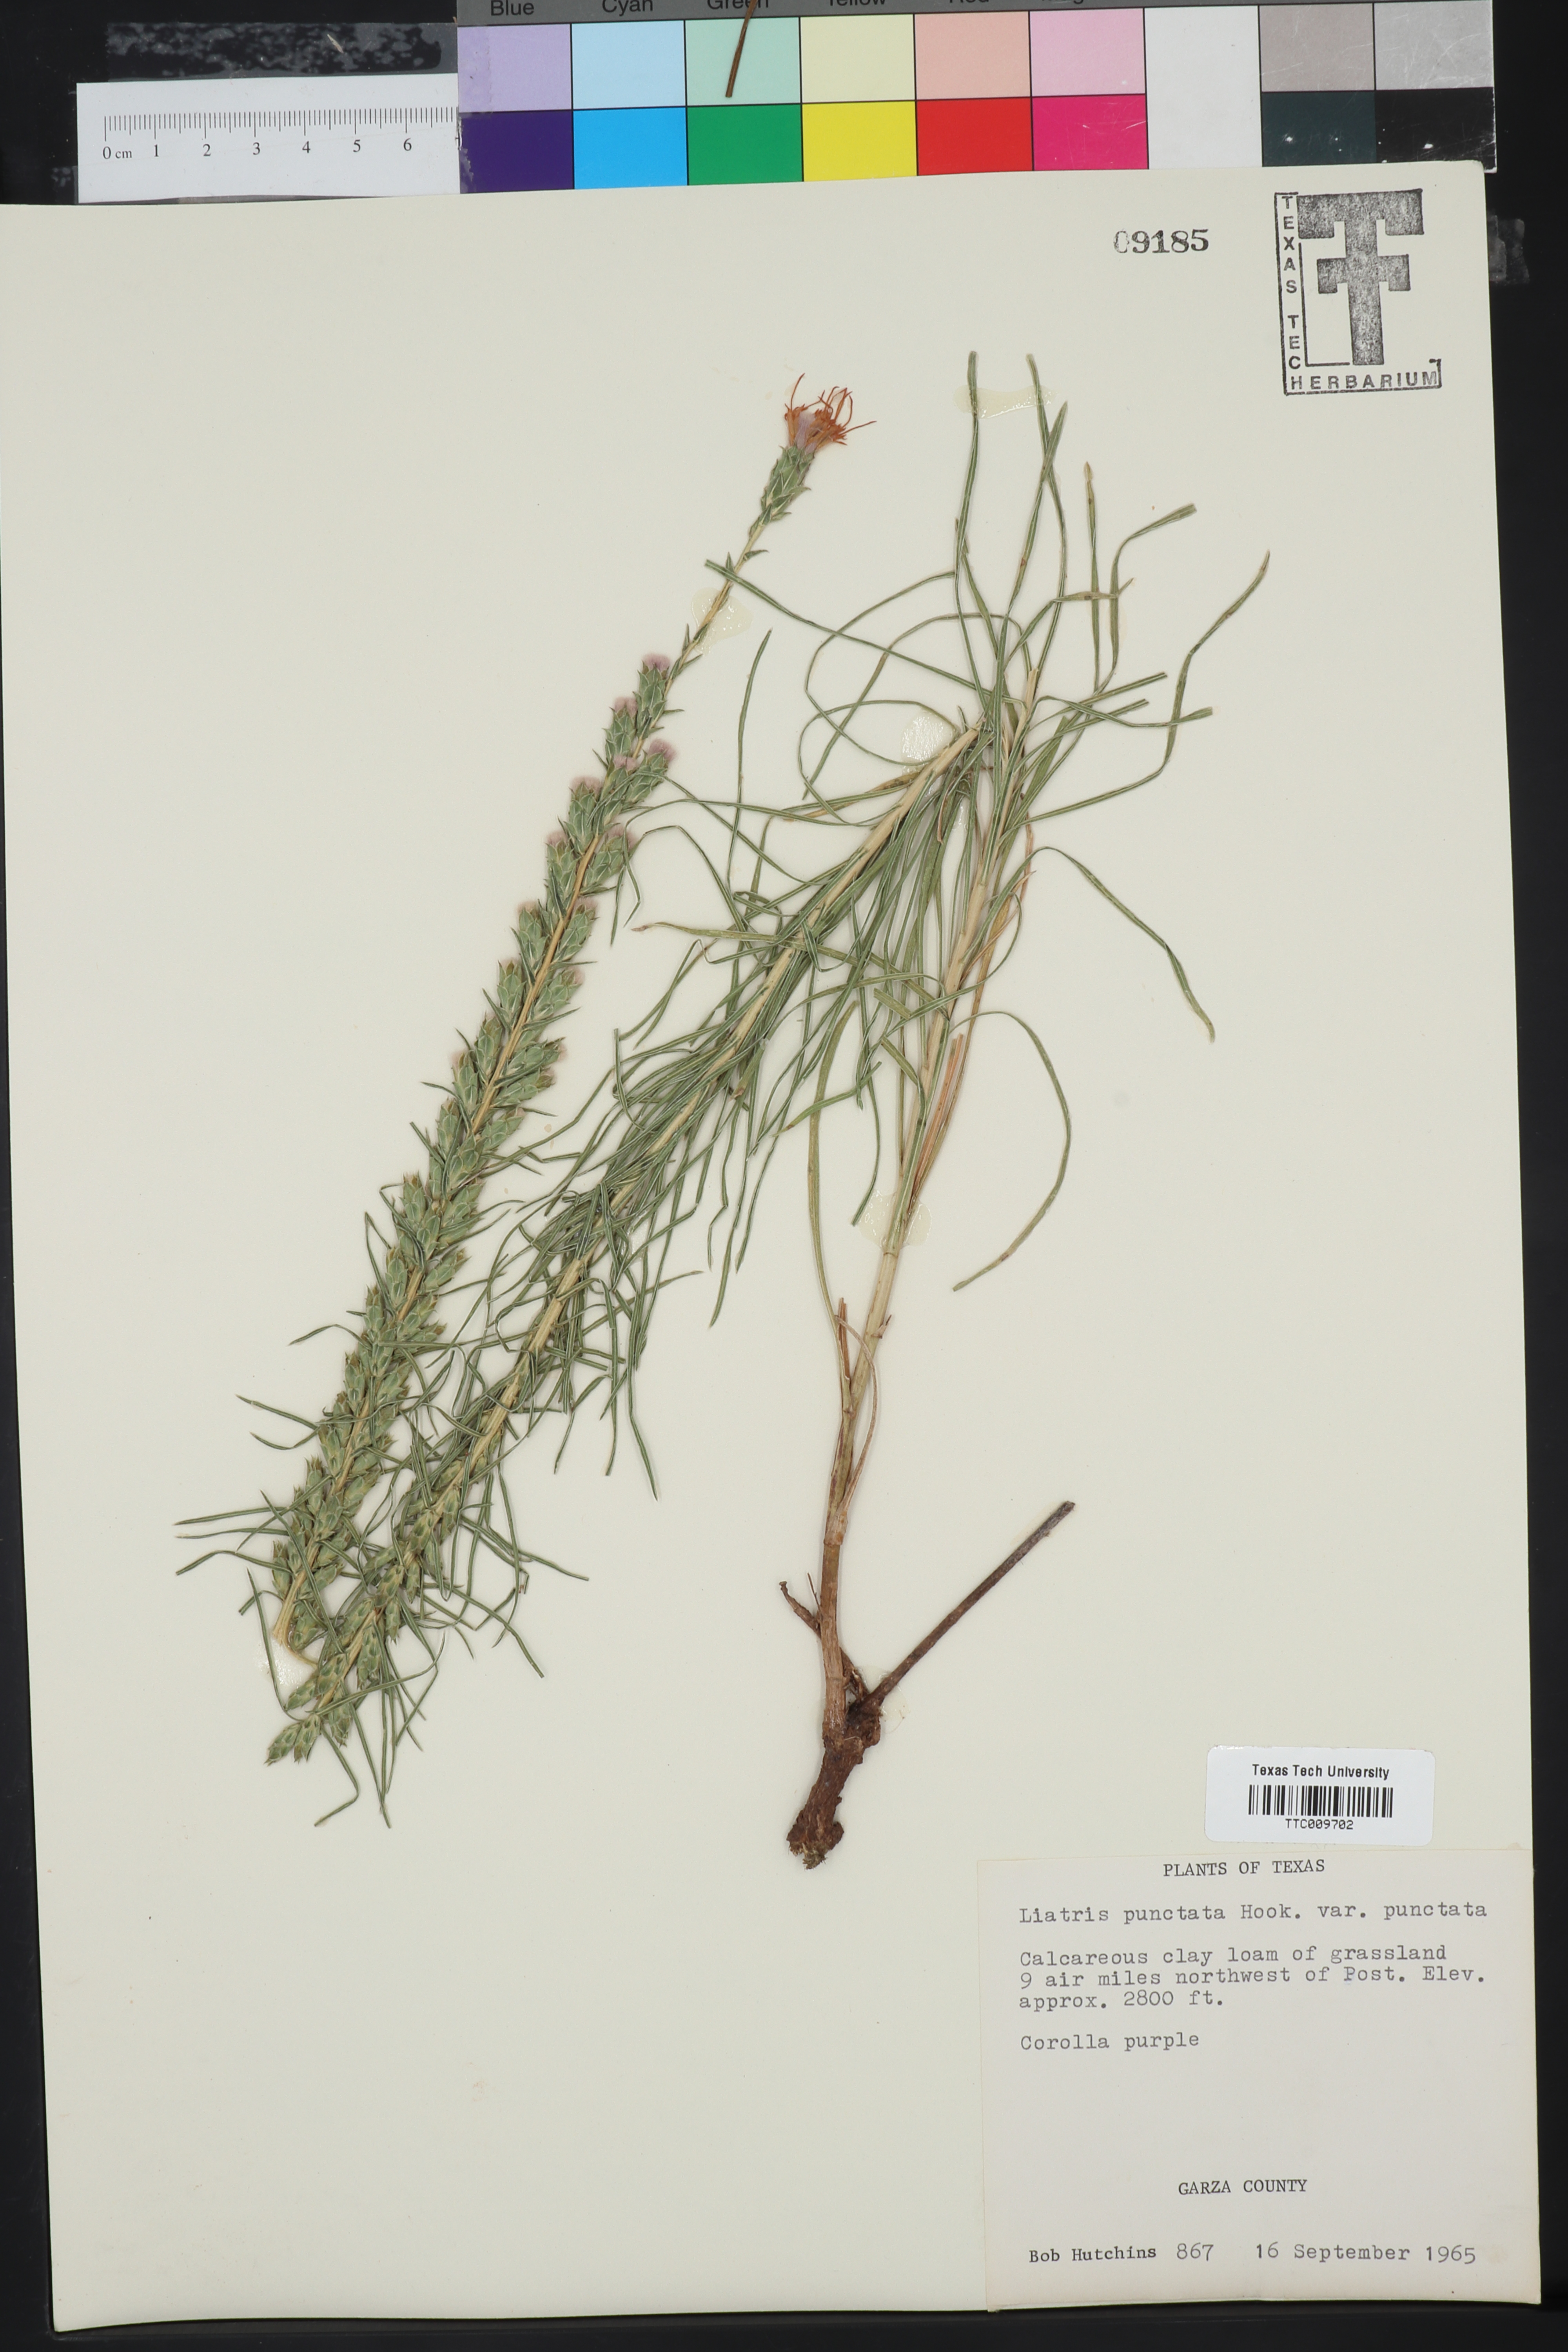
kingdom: Plantae
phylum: Tracheophyta
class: Magnoliopsida
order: Asterales
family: Asteraceae
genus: Liatris
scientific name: Liatris punctata
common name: Dotted gayfeather
